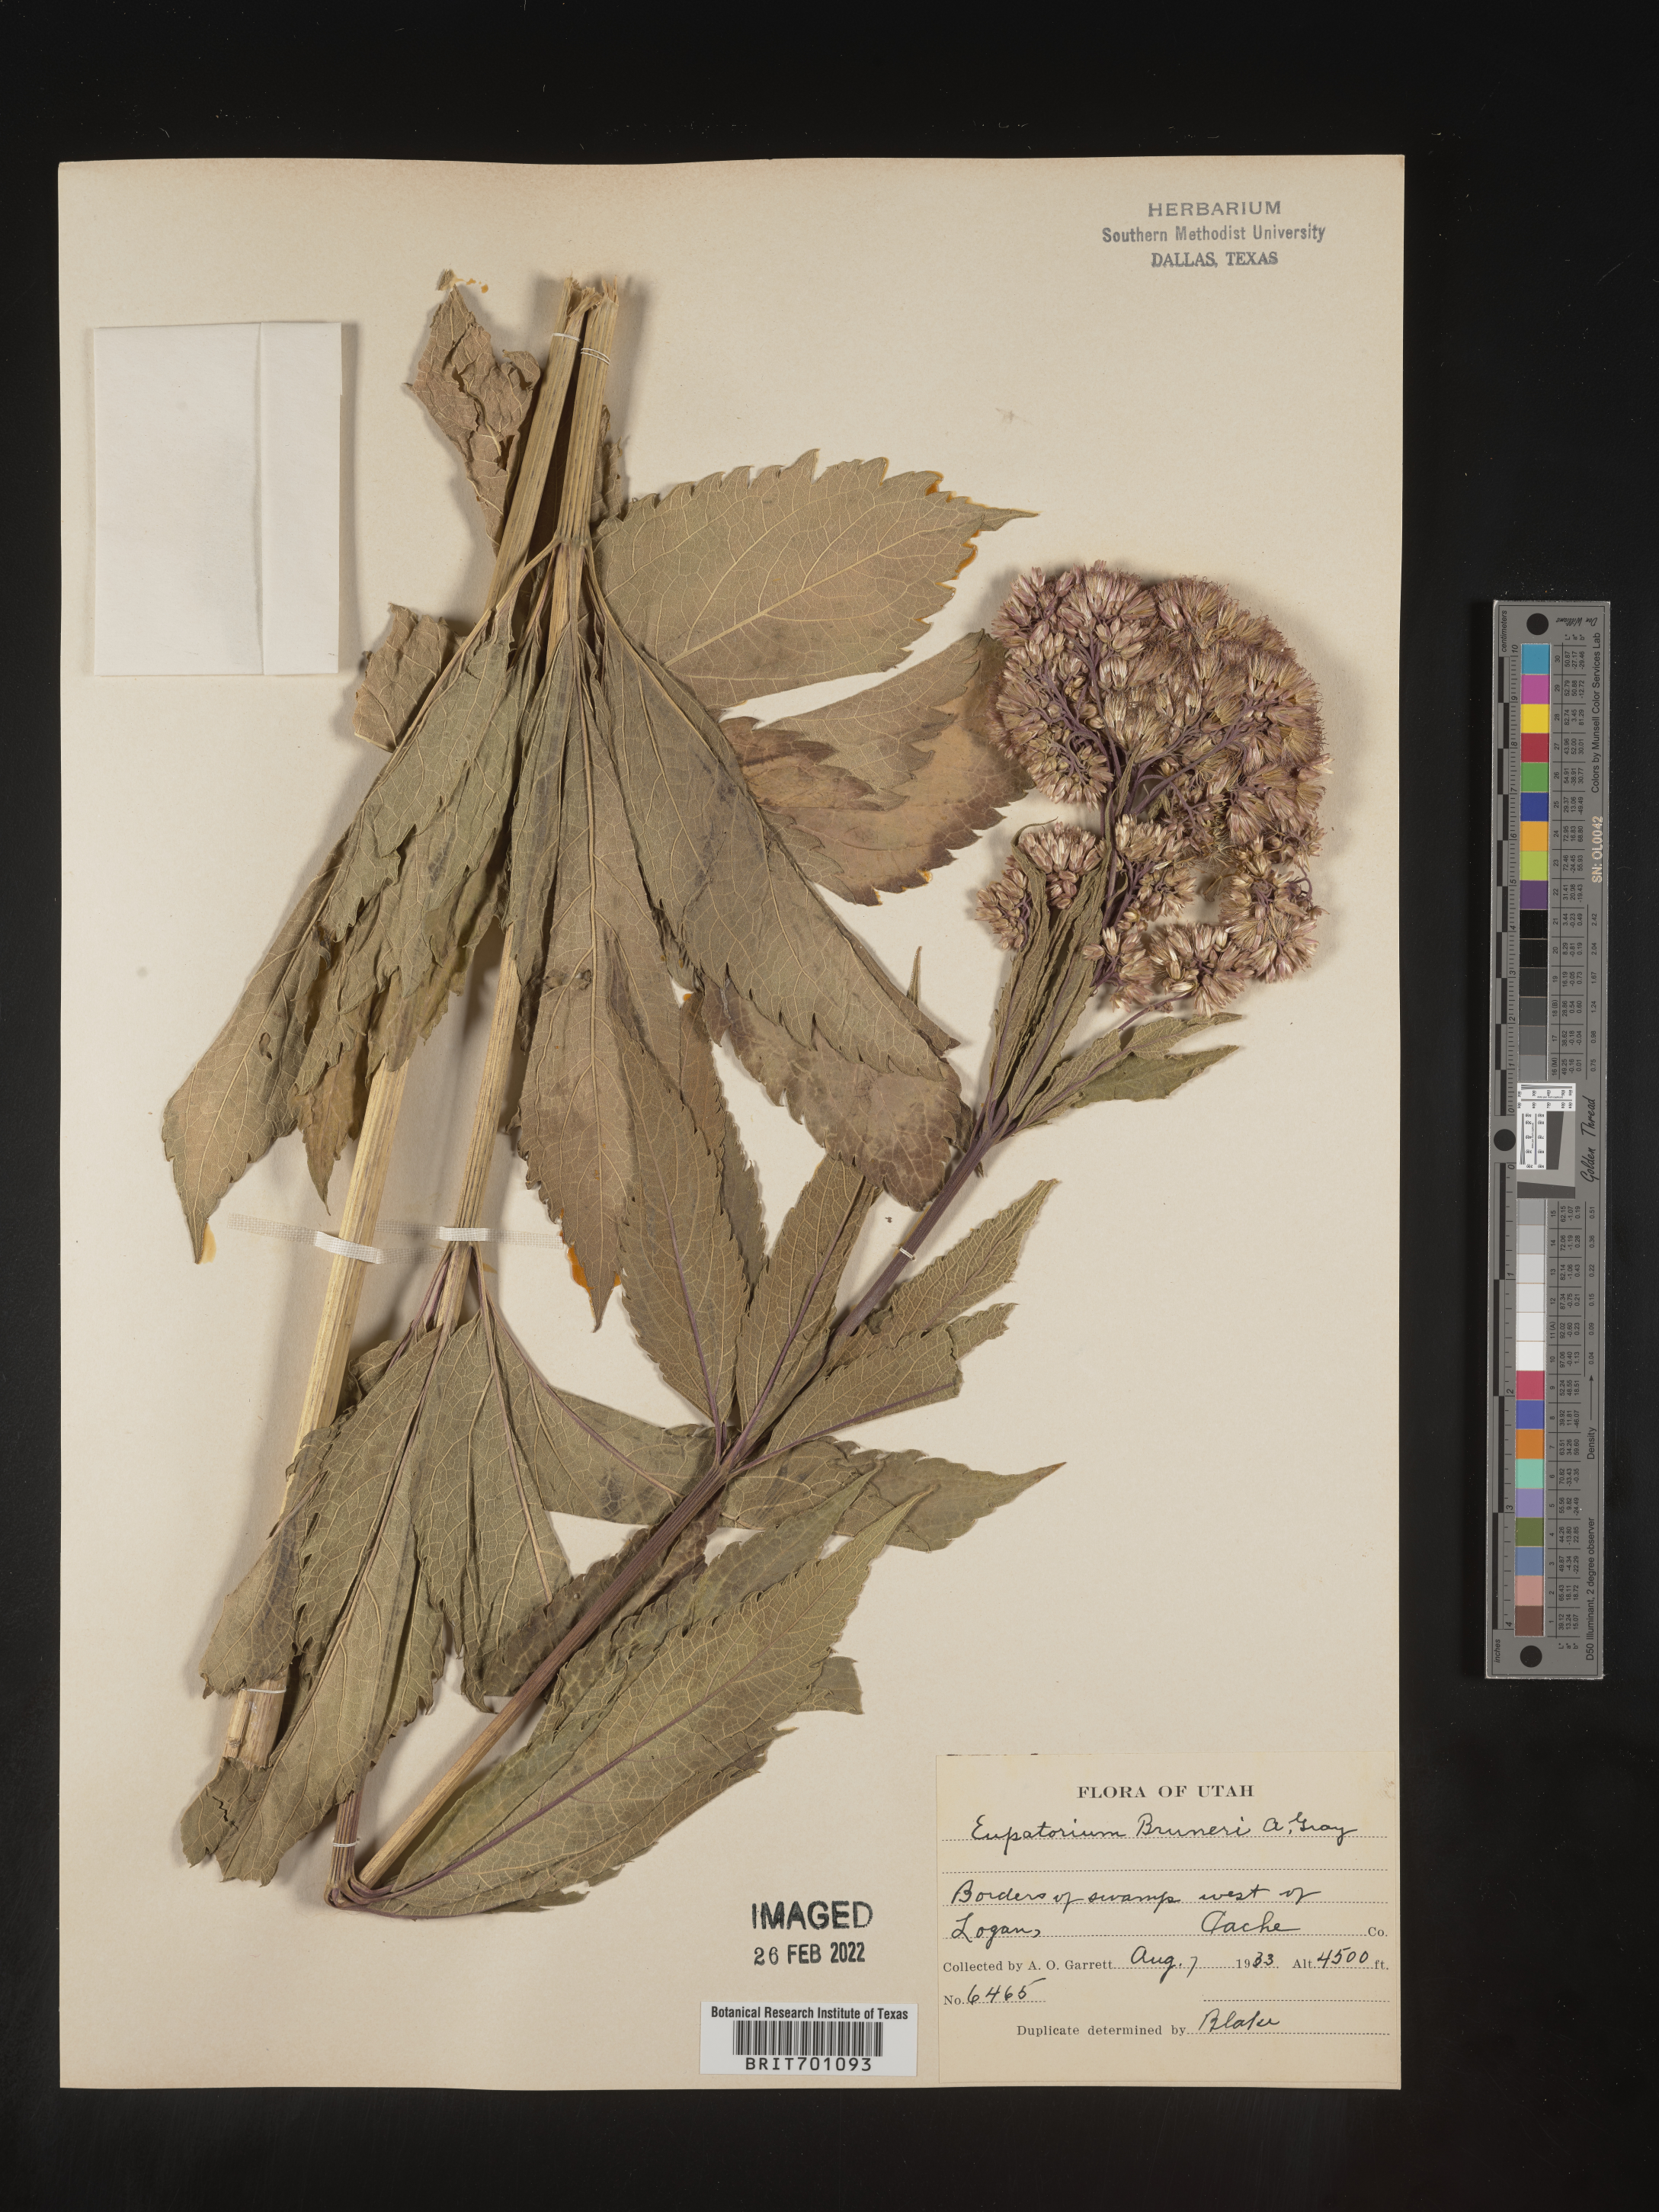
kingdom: Plantae
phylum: Tracheophyta
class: Magnoliopsida
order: Asterales
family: Asteraceae
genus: Eupatorium
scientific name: Eupatorium
